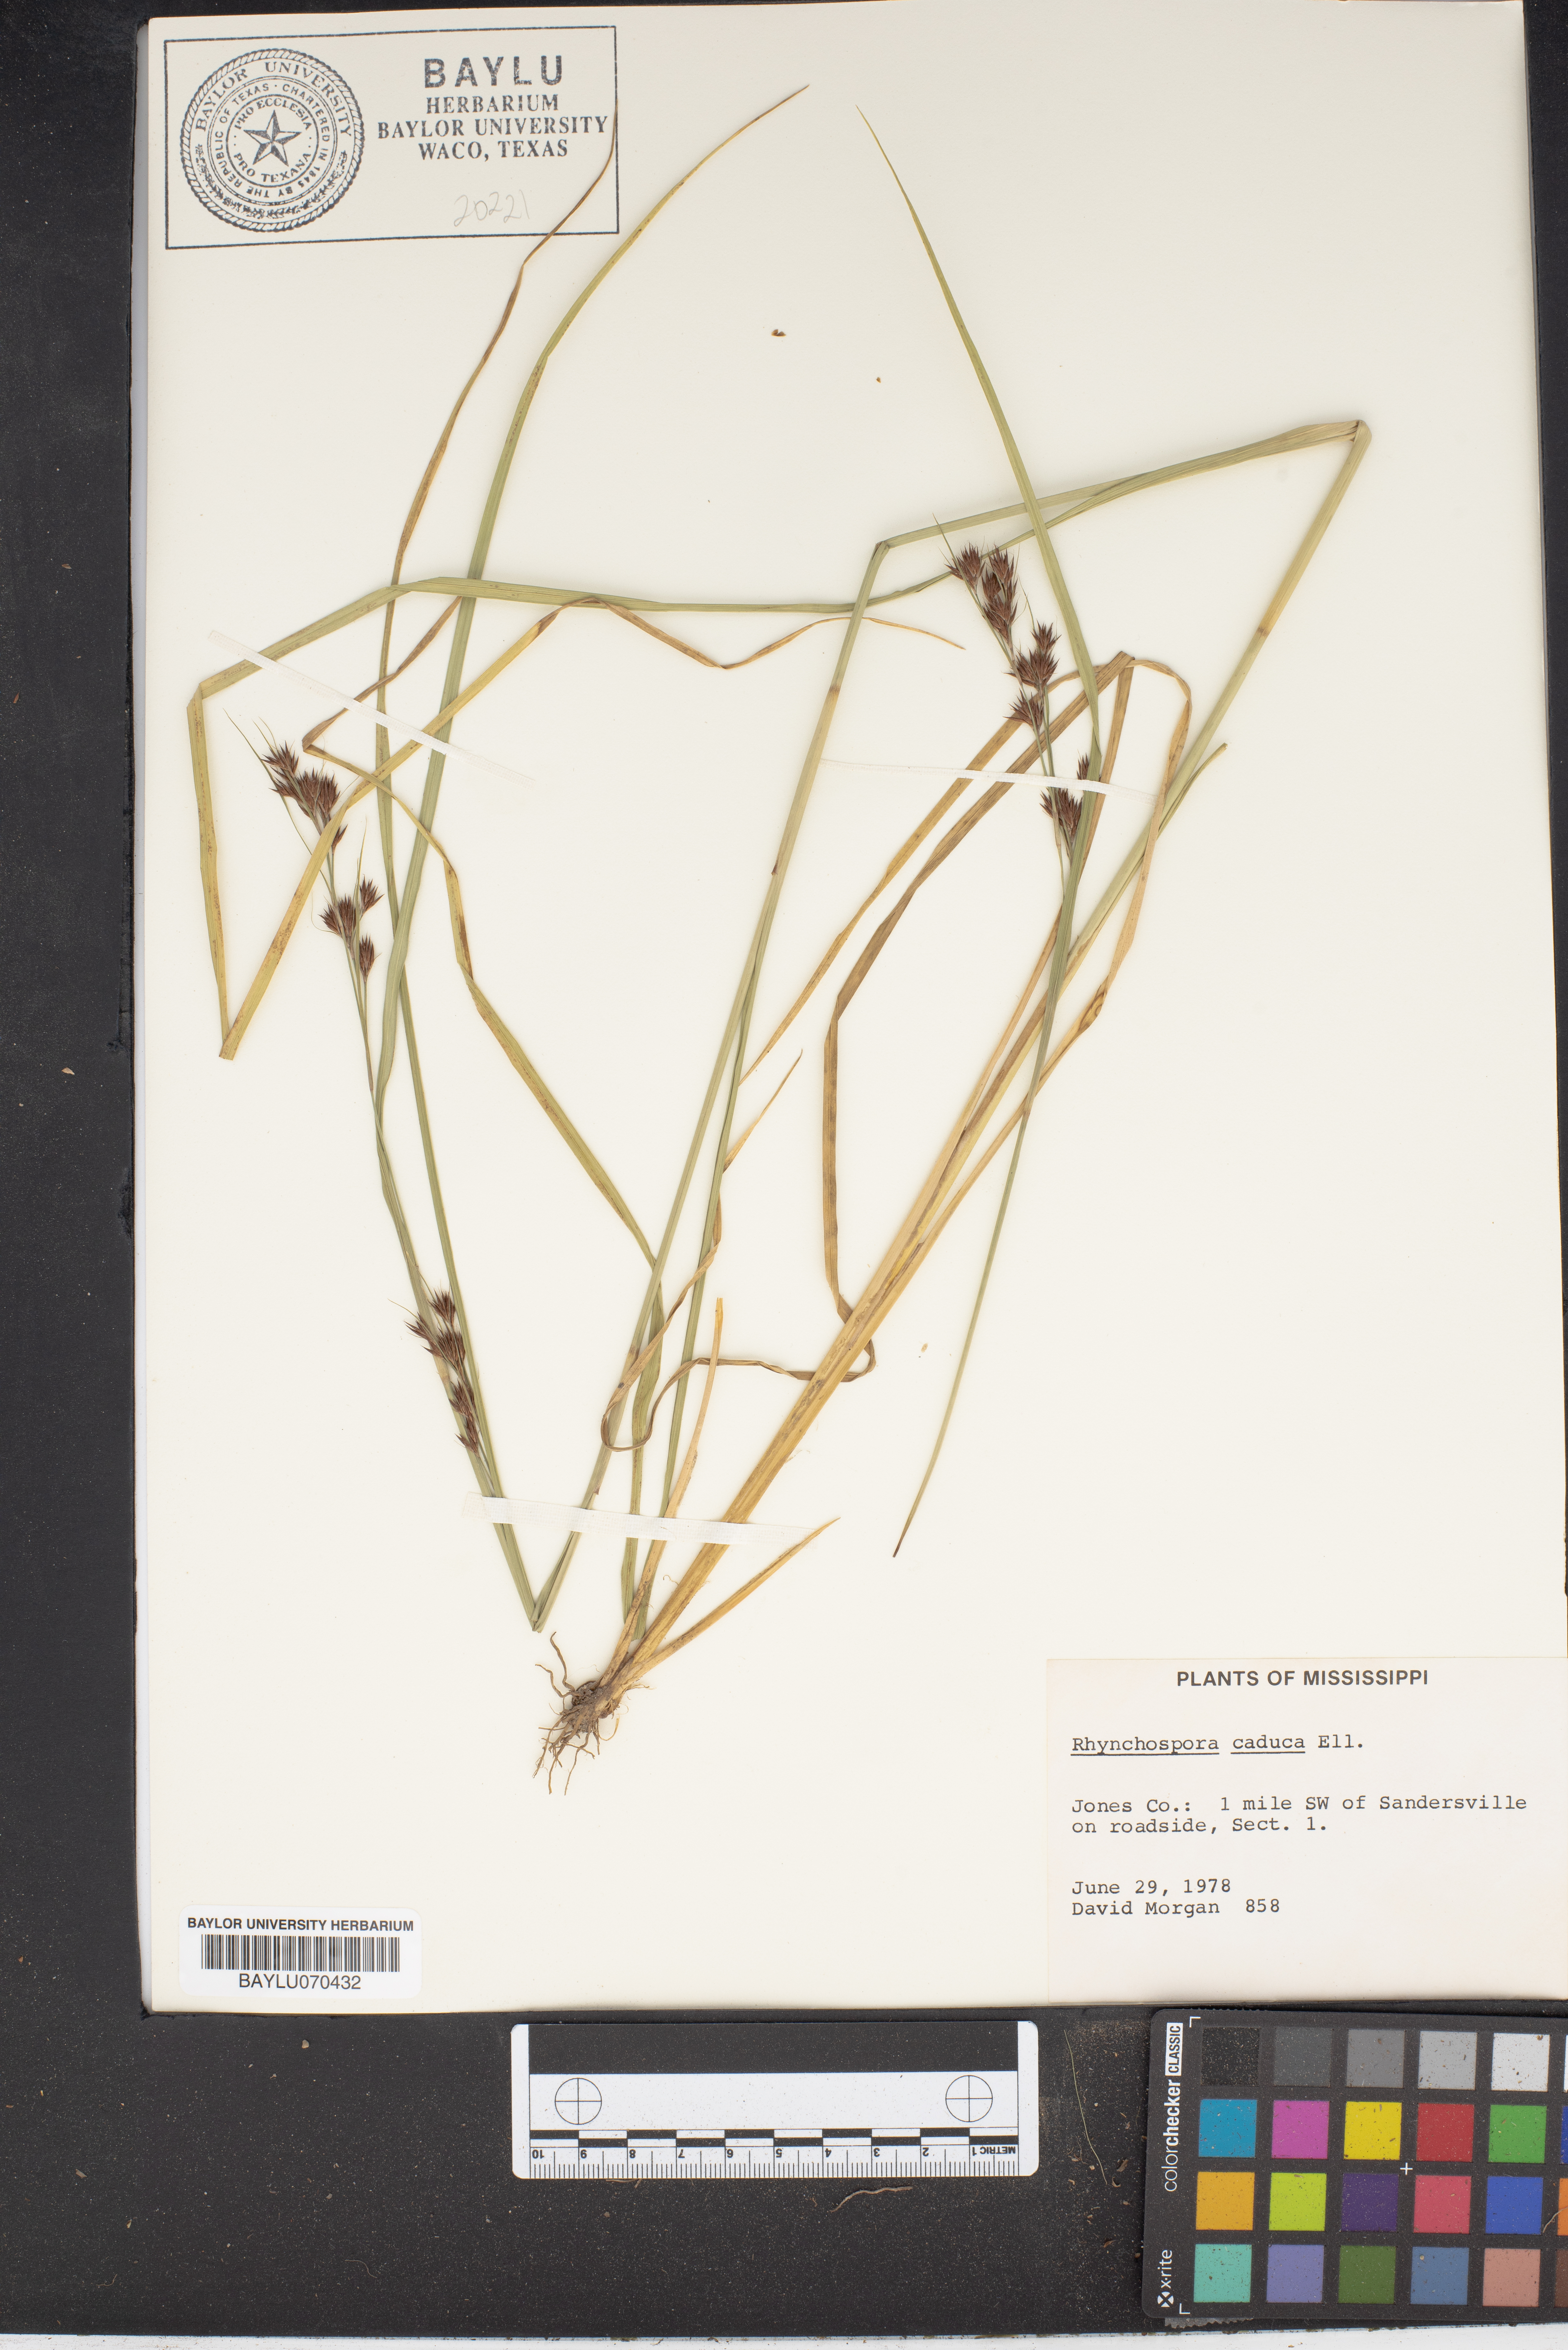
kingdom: Plantae
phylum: Tracheophyta
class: Liliopsida
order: Poales
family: Cyperaceae
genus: Rhynchospora
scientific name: Rhynchospora caduca
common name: Anglestem beaksedge
